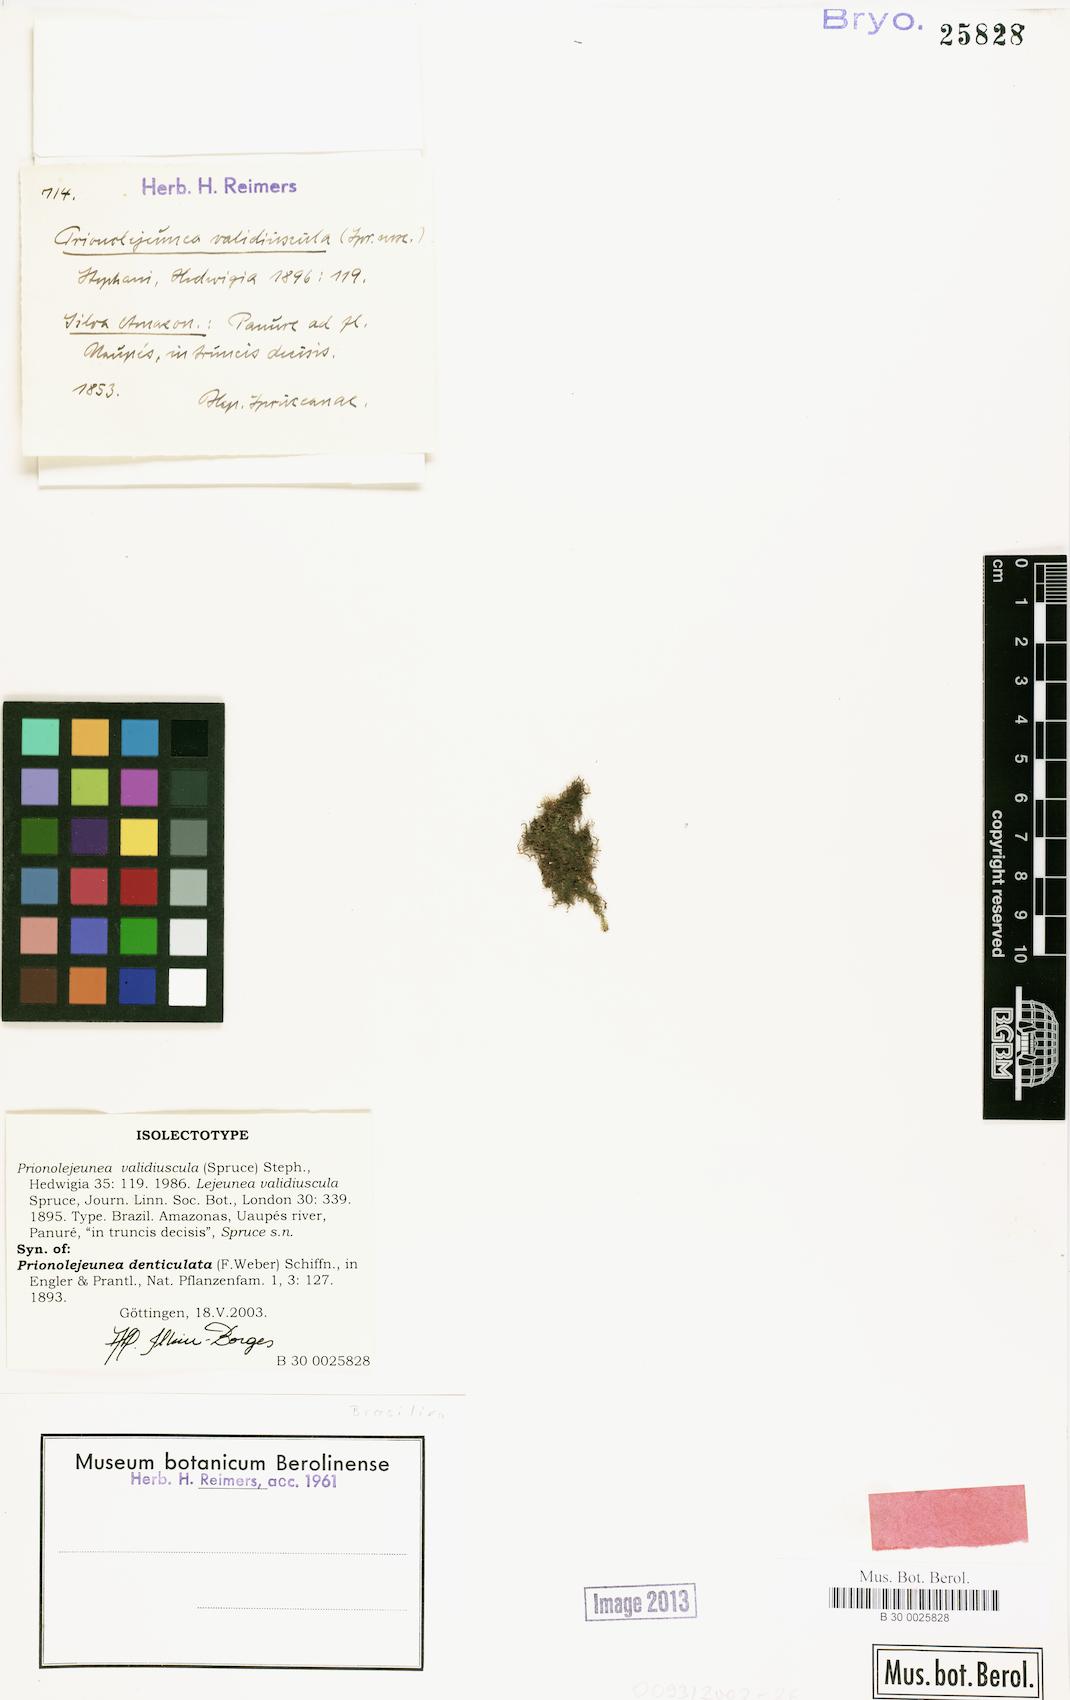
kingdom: Plantae
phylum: Marchantiophyta
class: Jungermanniopsida
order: Porellales
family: Lejeuneaceae
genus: Prionolejeunea
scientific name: Prionolejeunea denticulata
